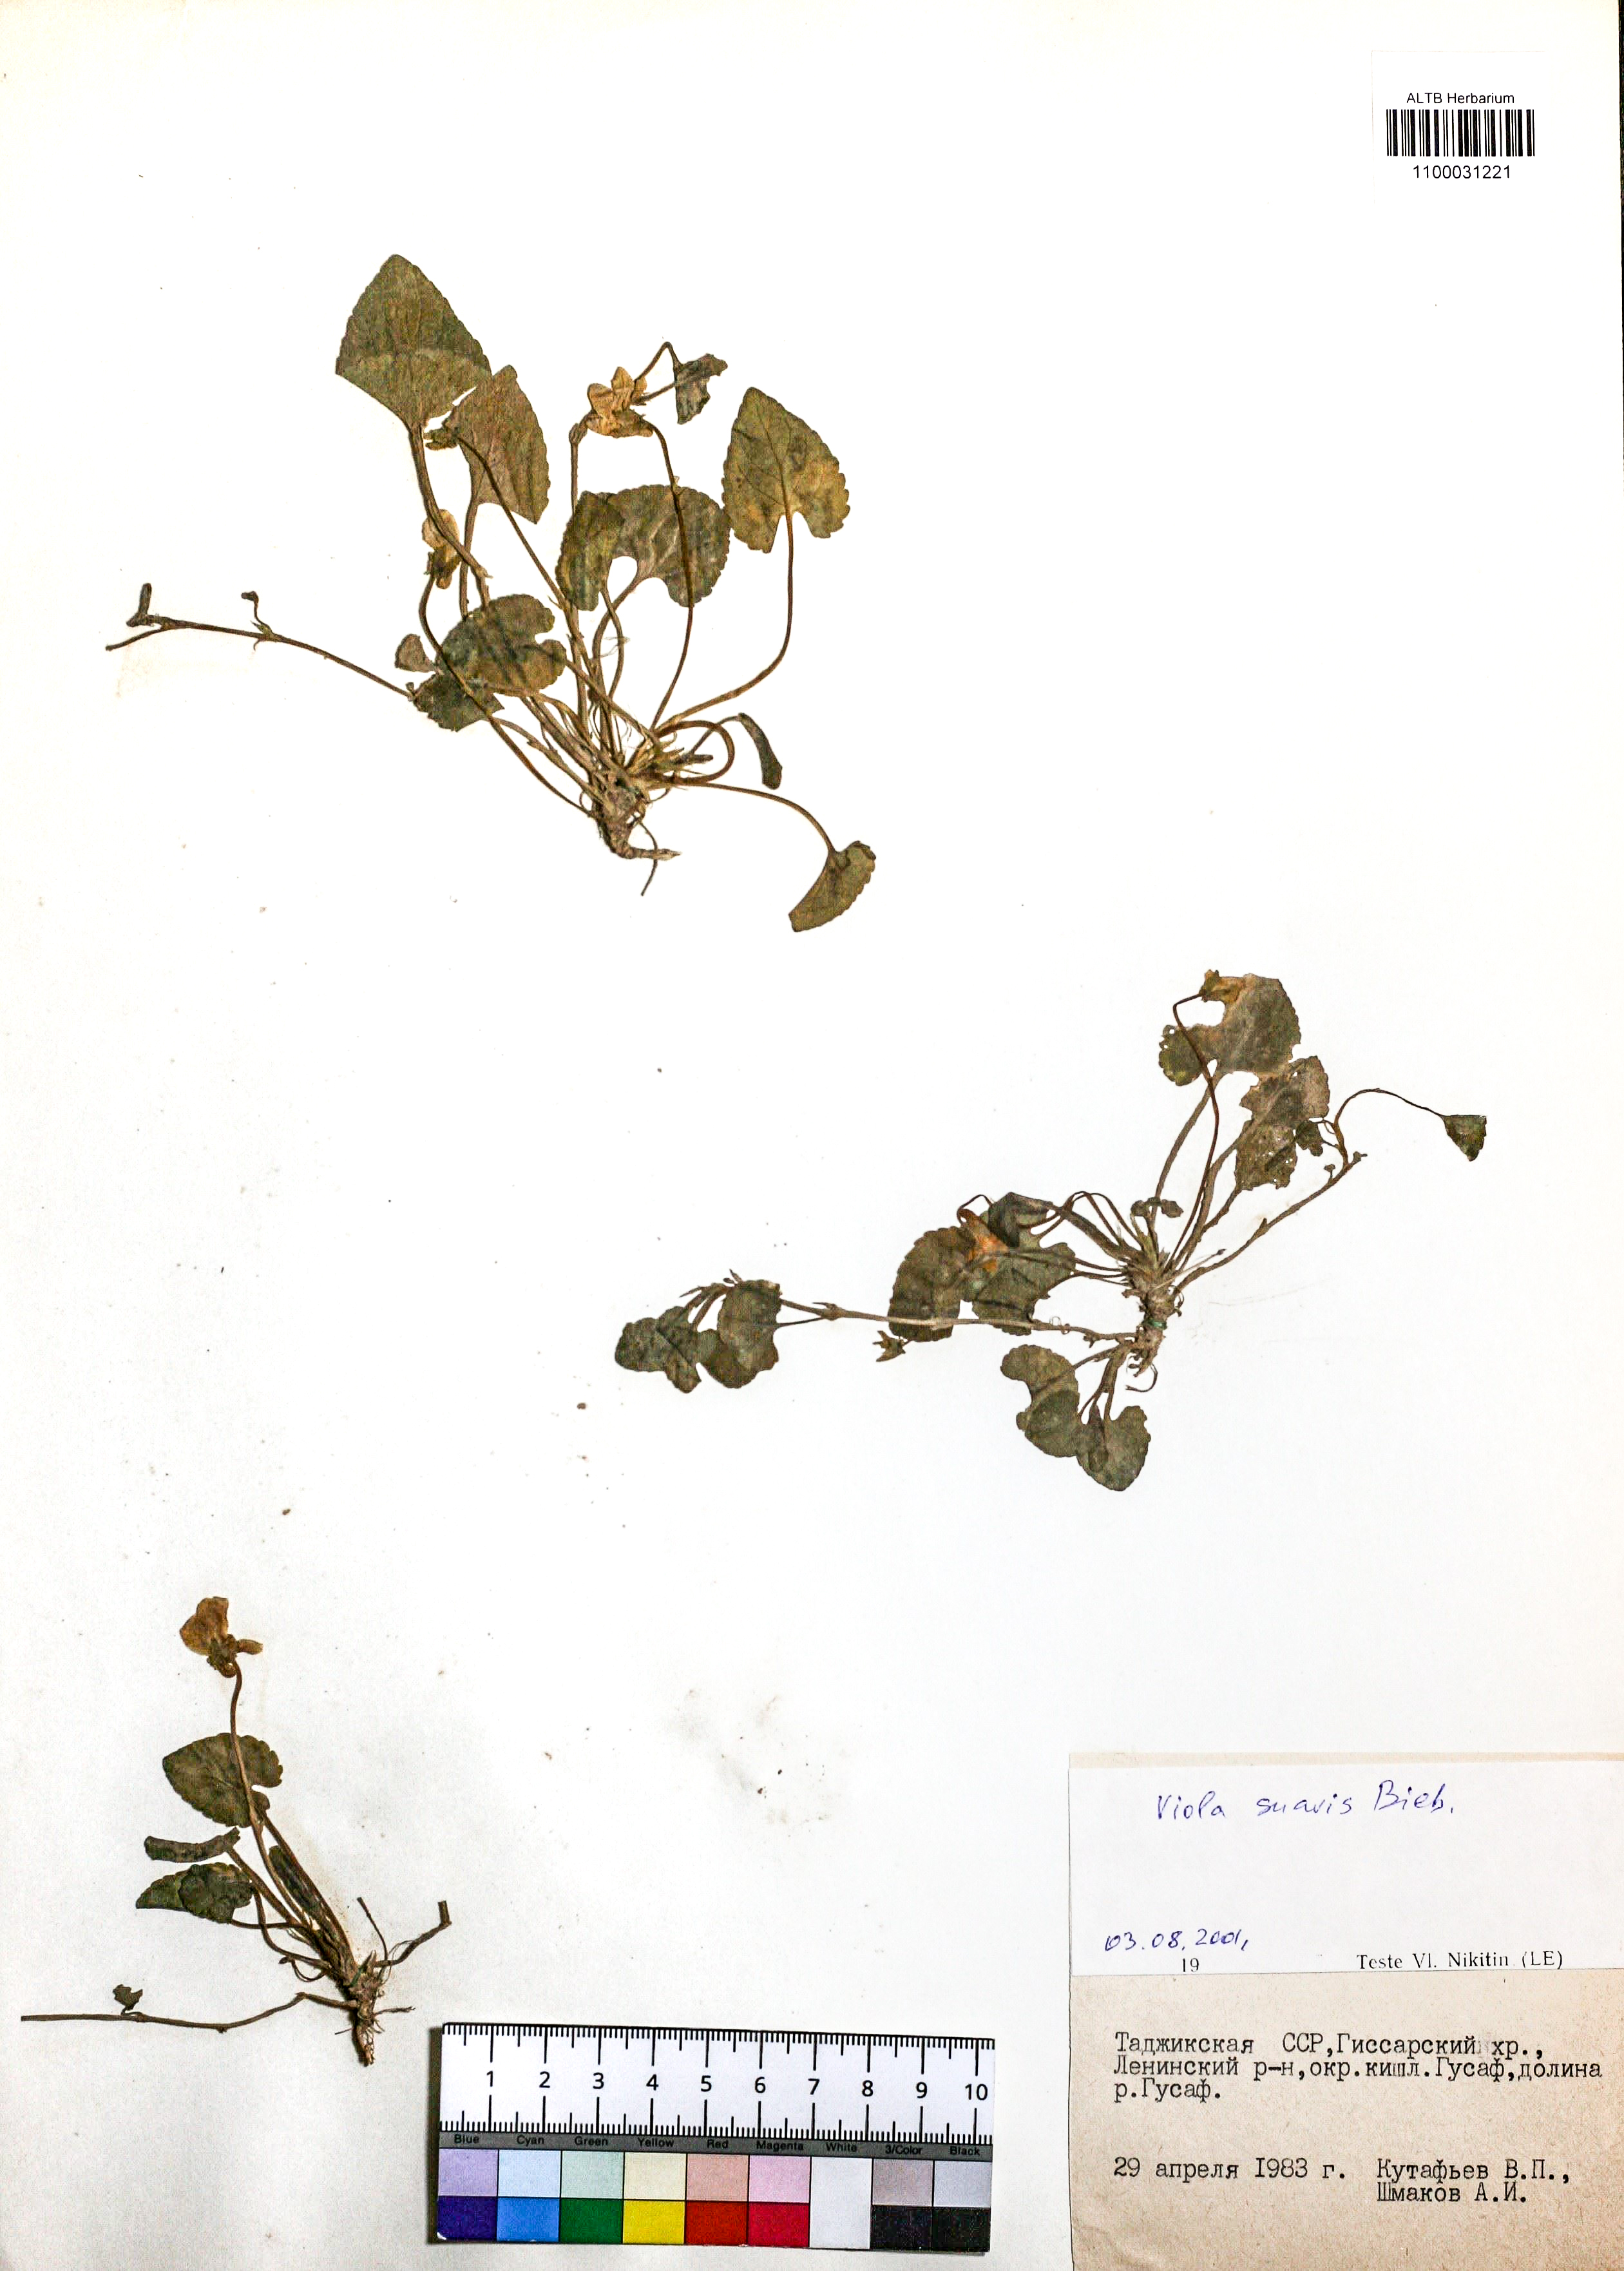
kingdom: Plantae
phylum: Tracheophyta
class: Magnoliopsida
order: Malpighiales
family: Violaceae
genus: Viola
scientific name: Viola suavis
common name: Russian violet
